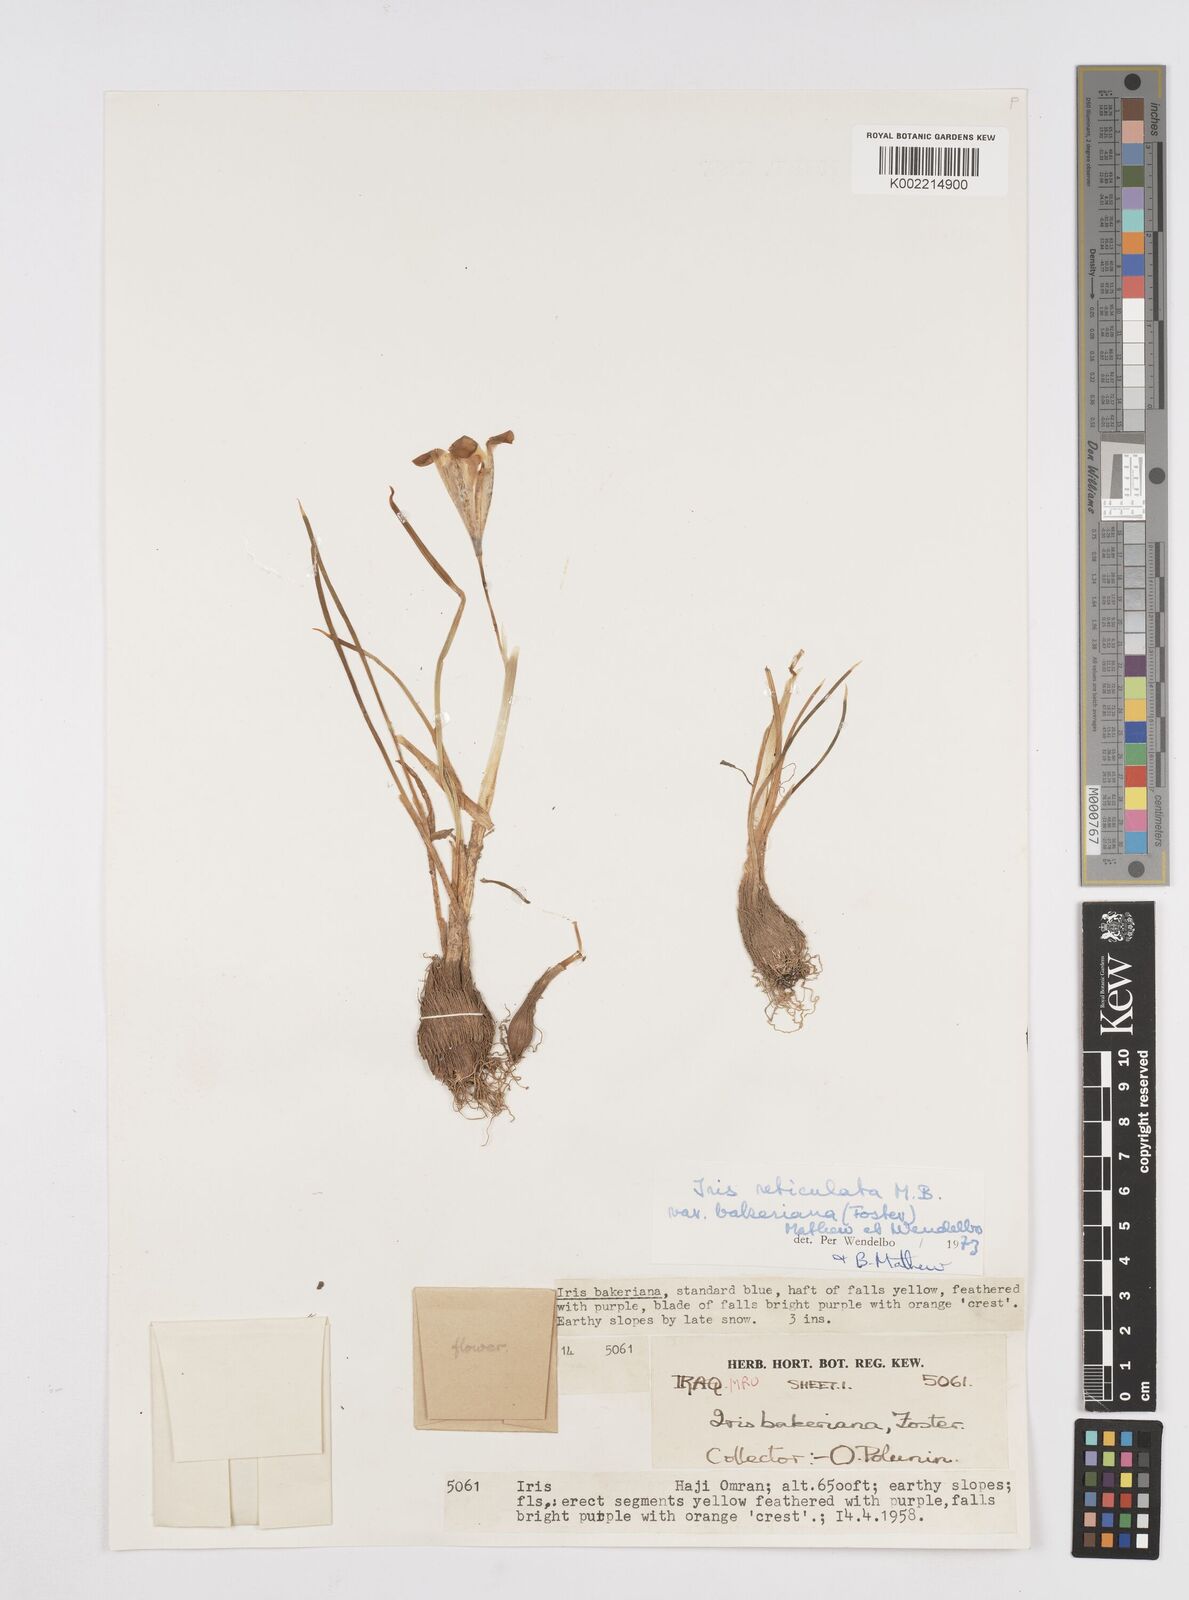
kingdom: Plantae
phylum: Tracheophyta
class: Liliopsida
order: Asparagales
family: Iridaceae
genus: Iris
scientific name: Iris reticulata
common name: Netted iris
